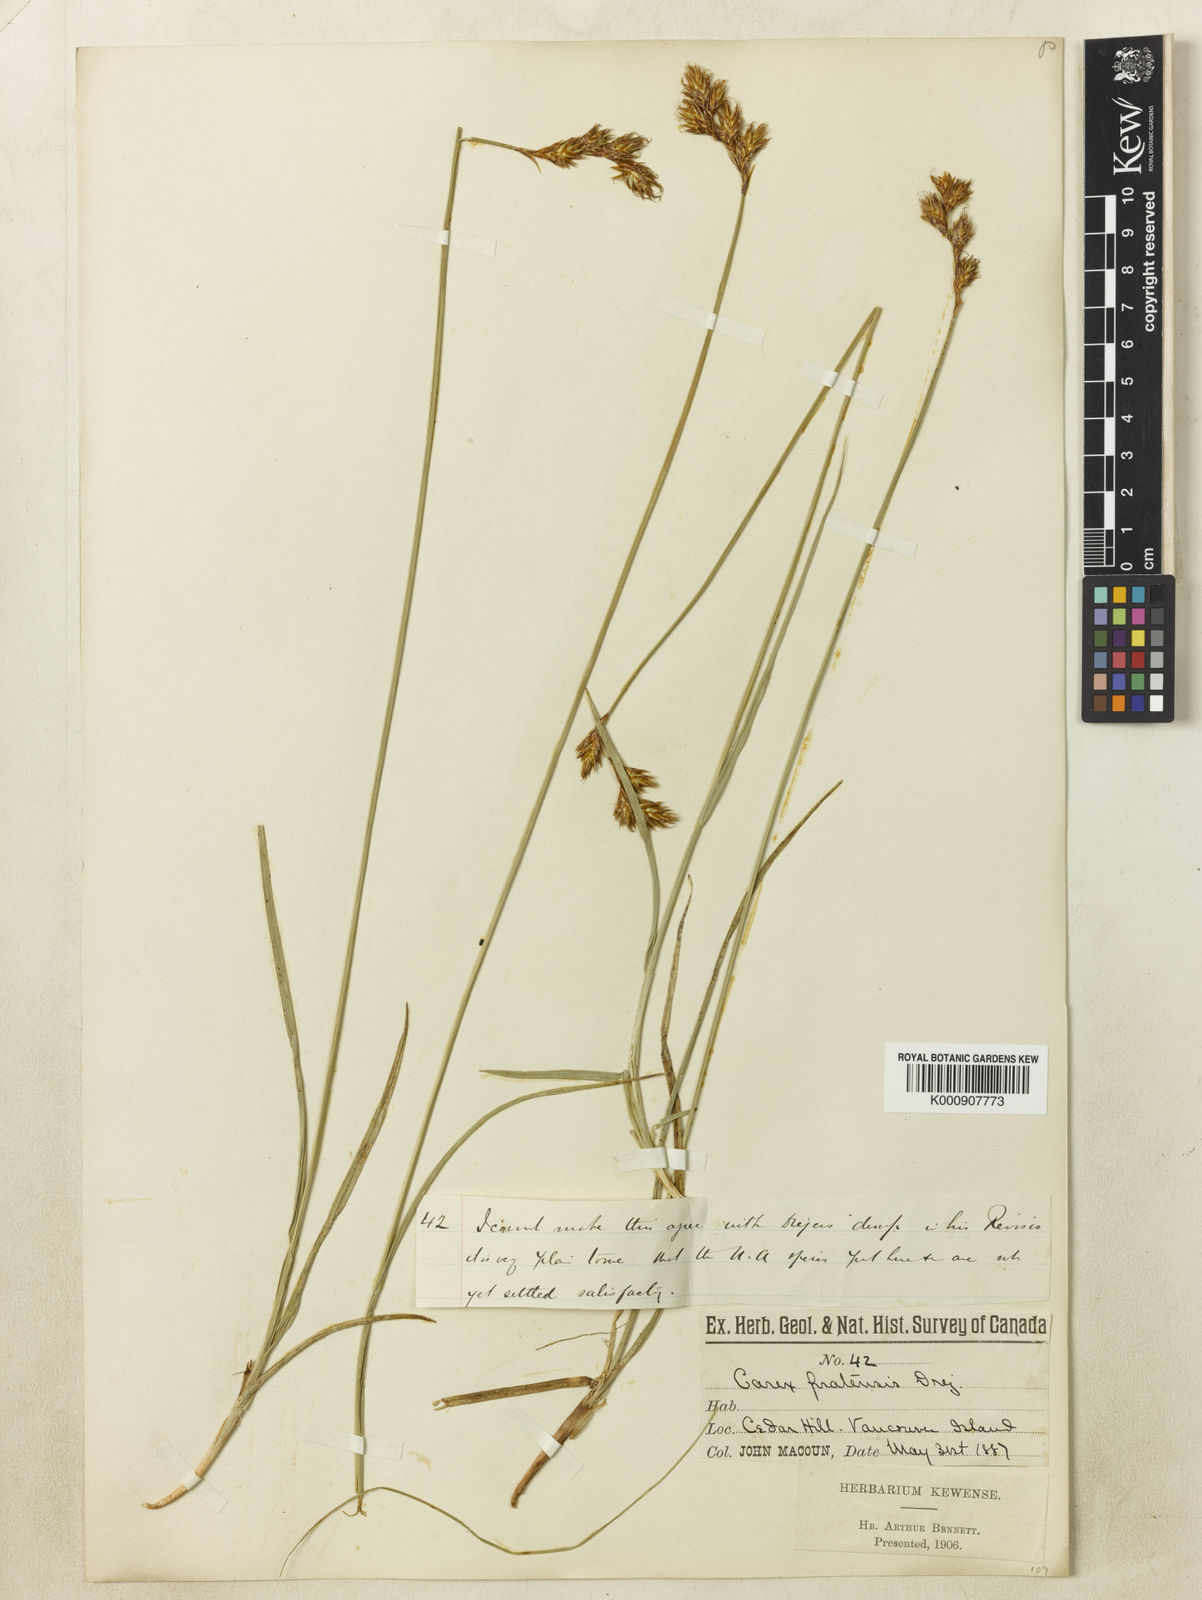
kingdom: Plantae
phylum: Tracheophyta
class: Liliopsida
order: Poales
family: Cyperaceae
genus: Carex
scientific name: Carex
